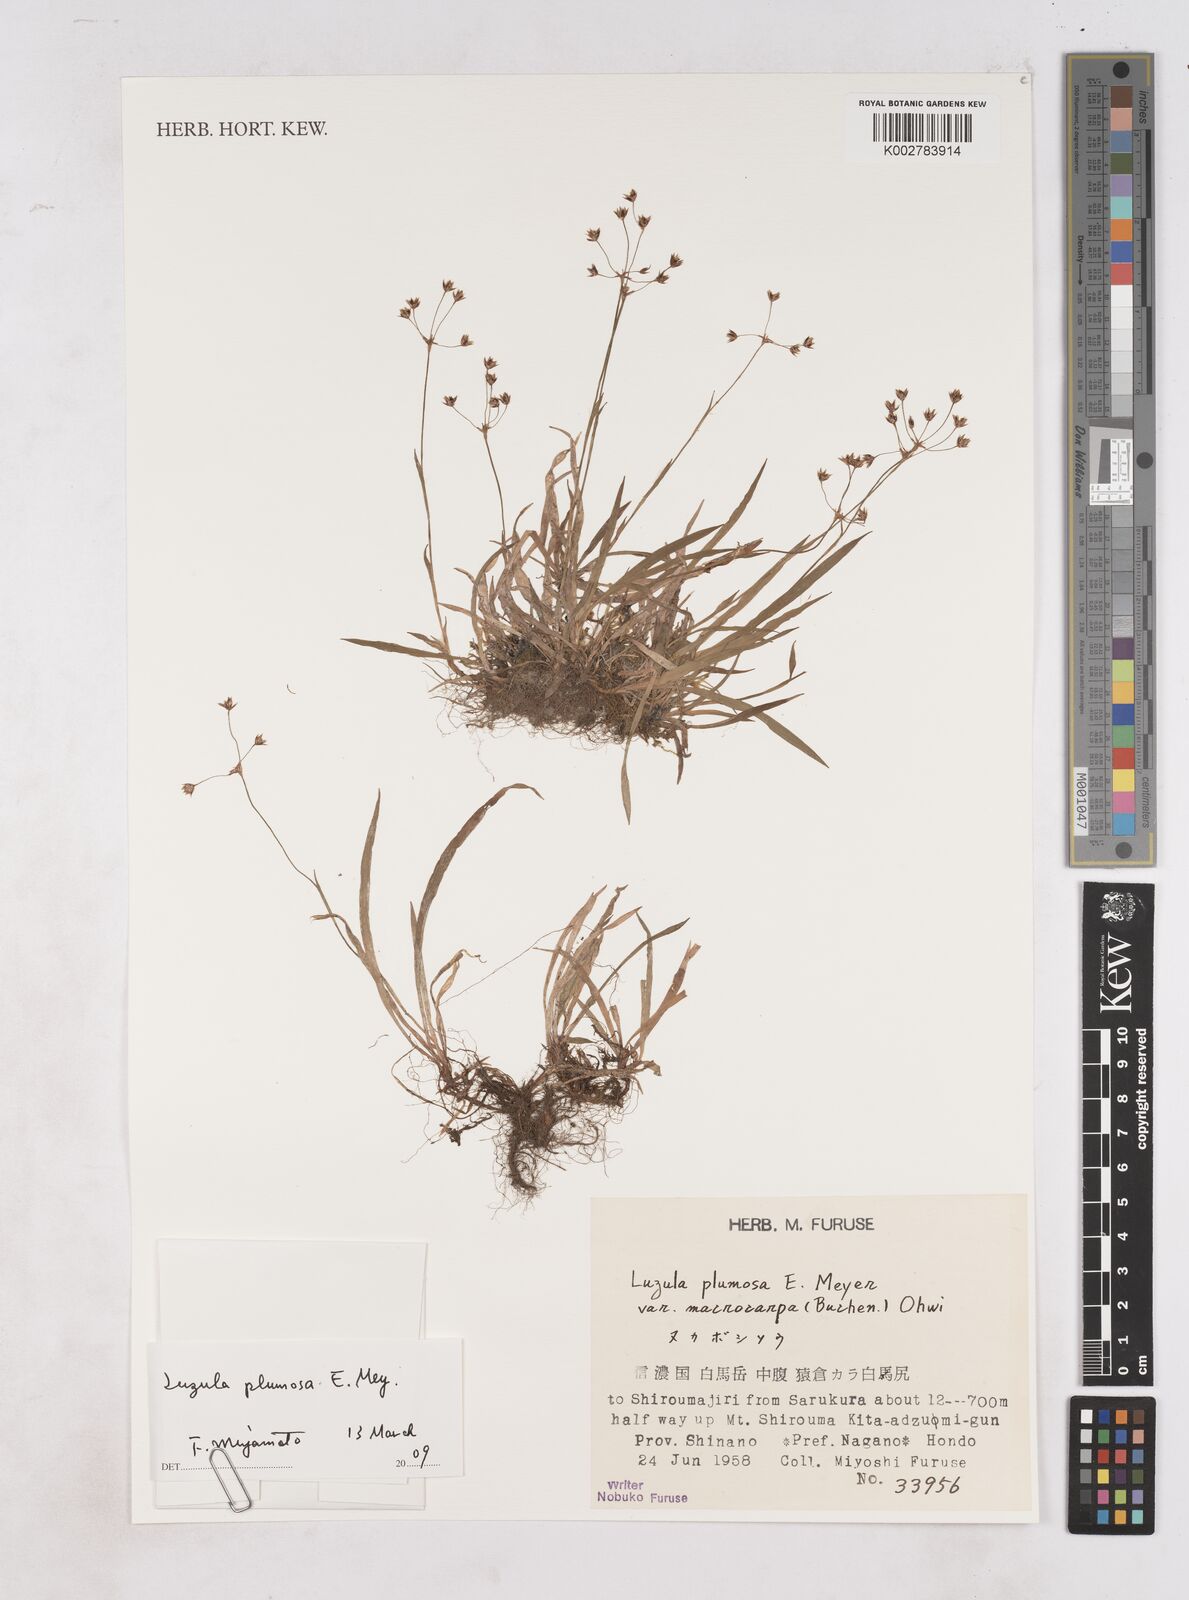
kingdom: Plantae
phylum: Tracheophyta
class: Liliopsida
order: Poales
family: Juncaceae
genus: Luzula
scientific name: Luzula plumosa
